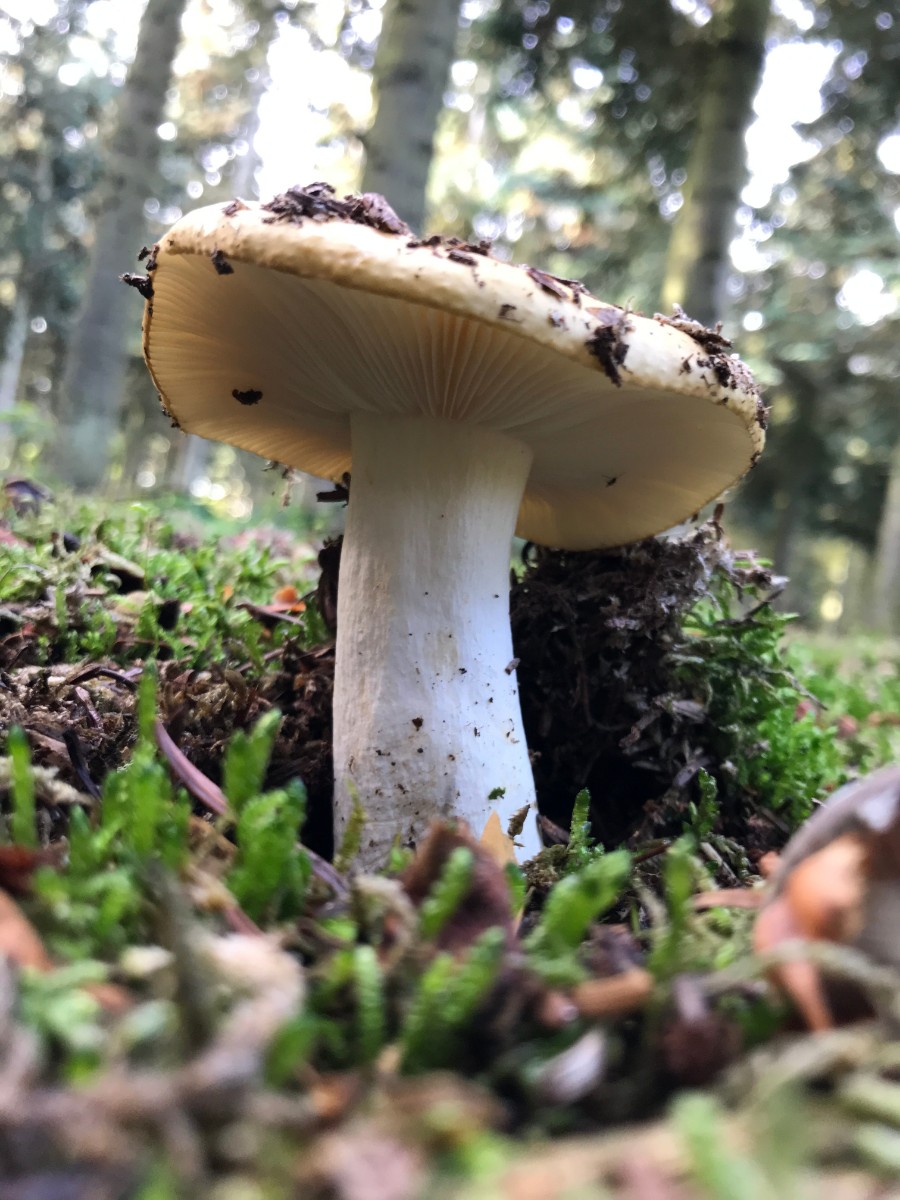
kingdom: Fungi
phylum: Basidiomycota
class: Agaricomycetes
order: Russulales
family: Russulaceae
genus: Russula
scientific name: Russula ochroleuca
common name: okkergul skørhat
